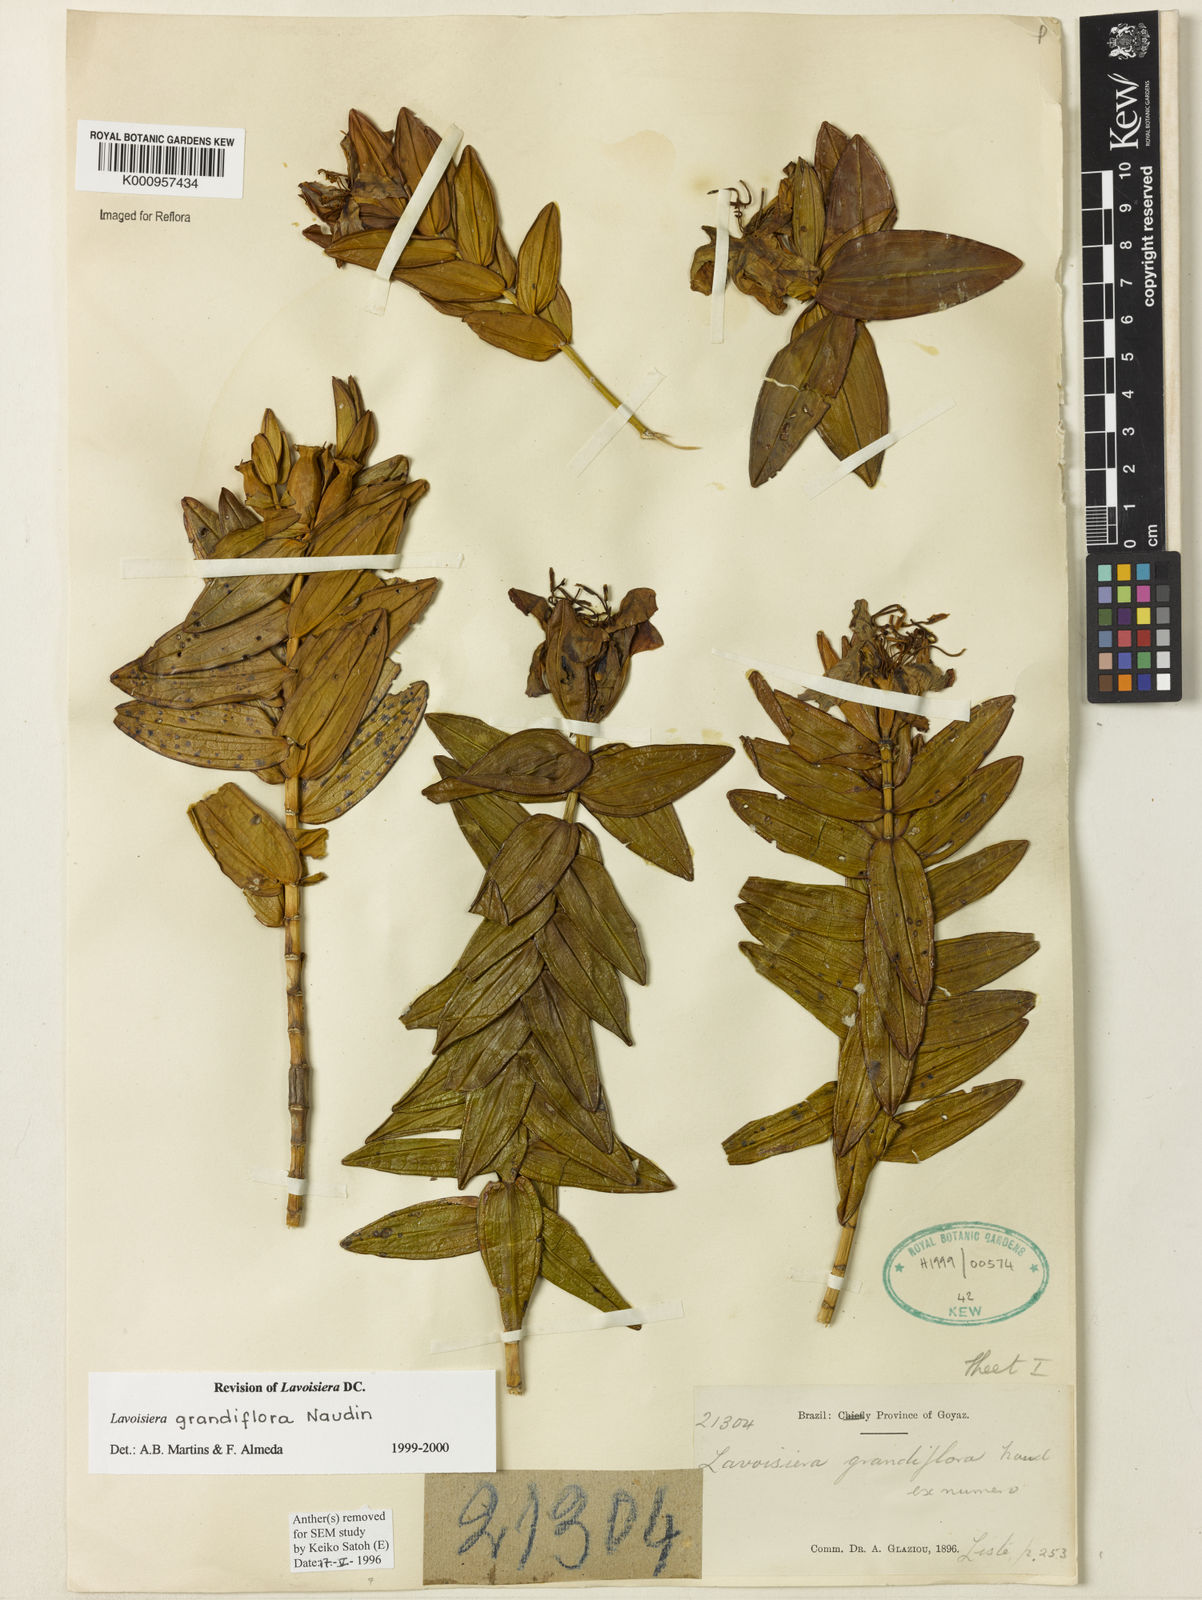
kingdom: Plantae
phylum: Tracheophyta
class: Magnoliopsida
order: Myrtales
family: Melastomataceae
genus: Microlicia
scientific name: Microlicia macrantha
